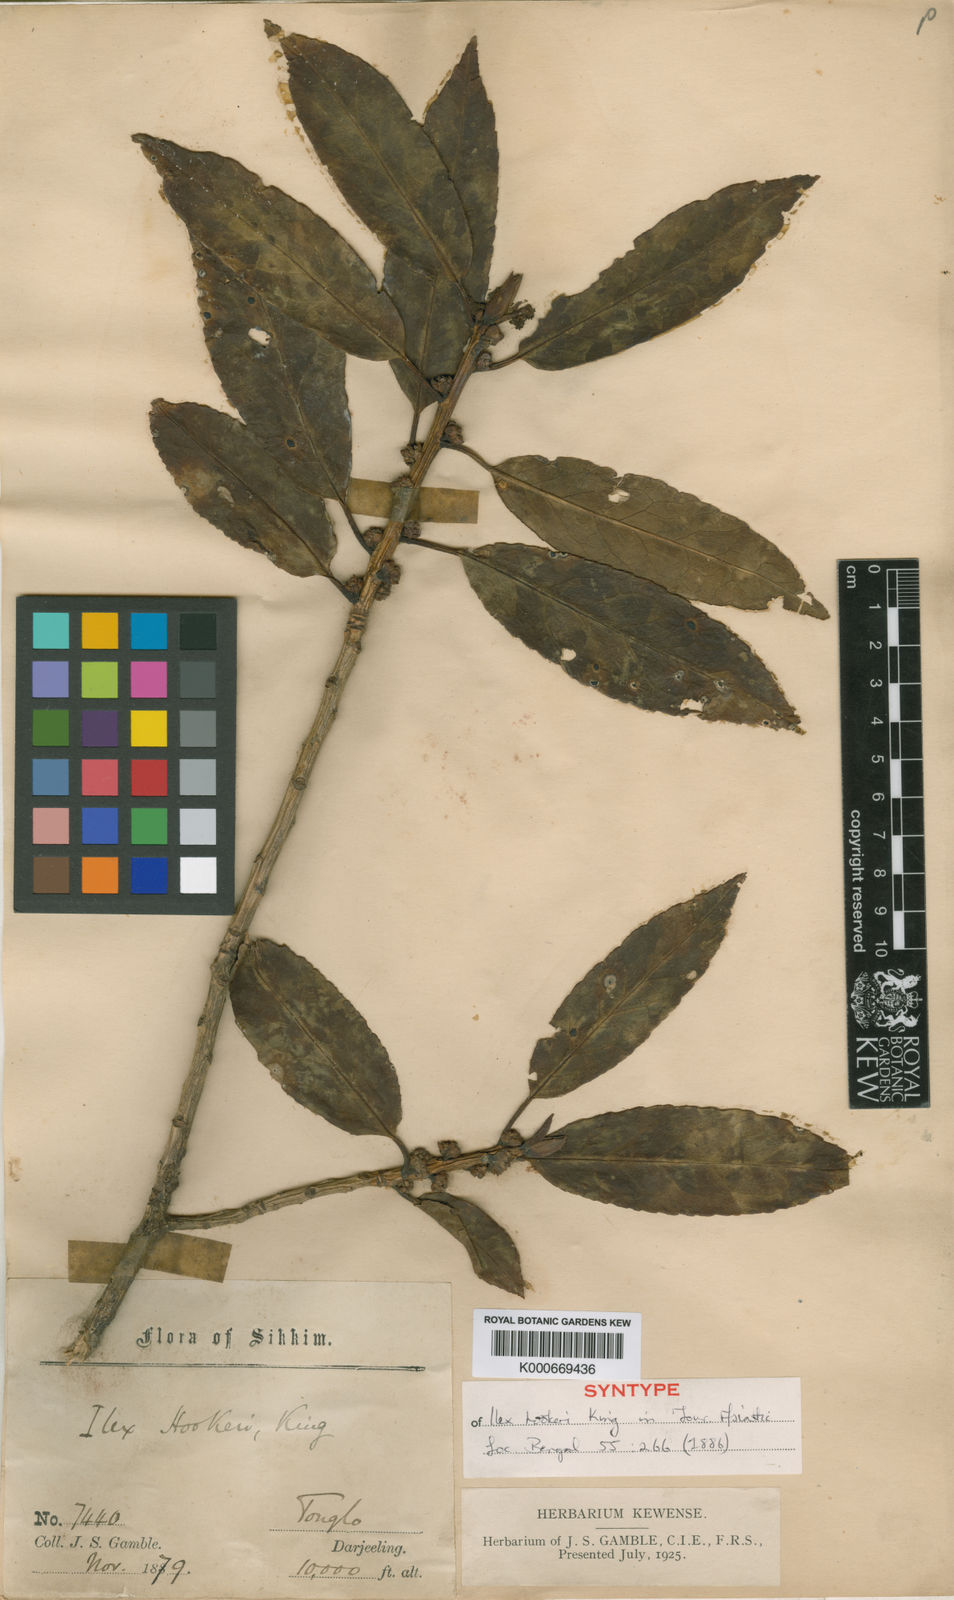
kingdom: Plantae
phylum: Tracheophyta
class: Magnoliopsida
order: Aquifoliales
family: Aquifoliaceae
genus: Ilex
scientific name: Ilex hookeri
